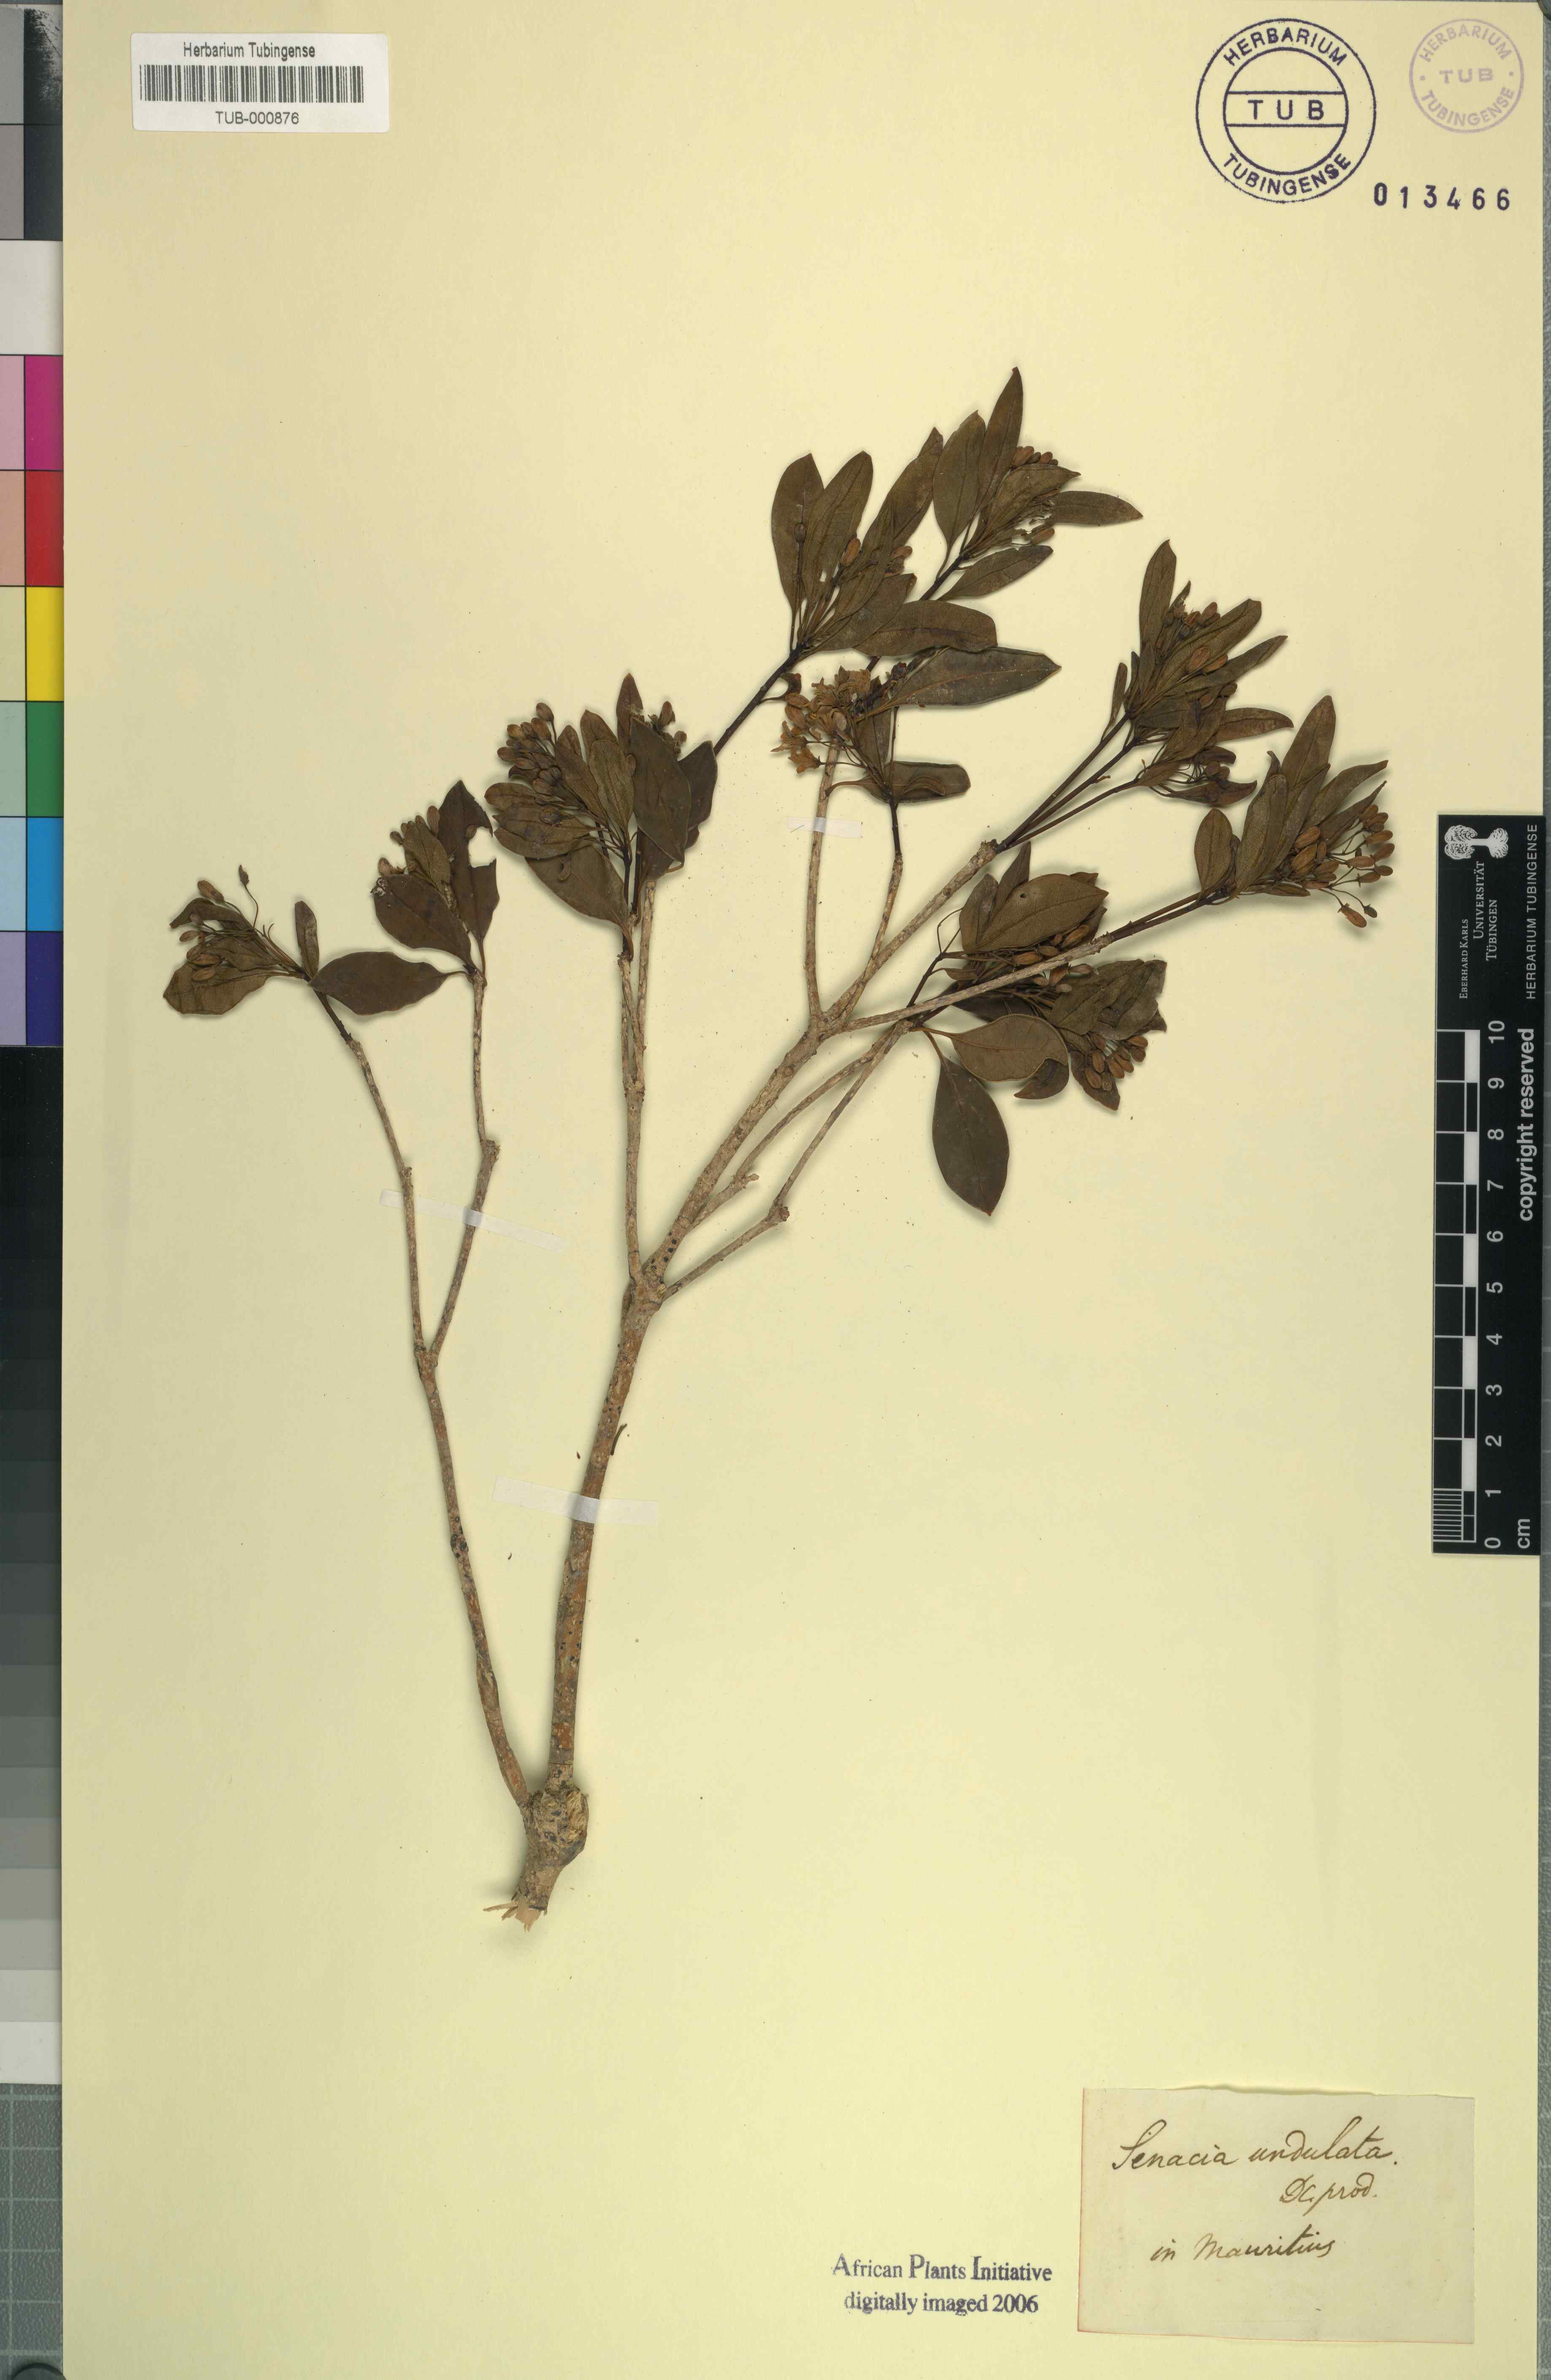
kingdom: Plantae
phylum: Tracheophyta
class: Magnoliopsida
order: Apiales
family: Pittosporaceae
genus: Pittosporum
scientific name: Pittosporum senacia
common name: Cheesewood
